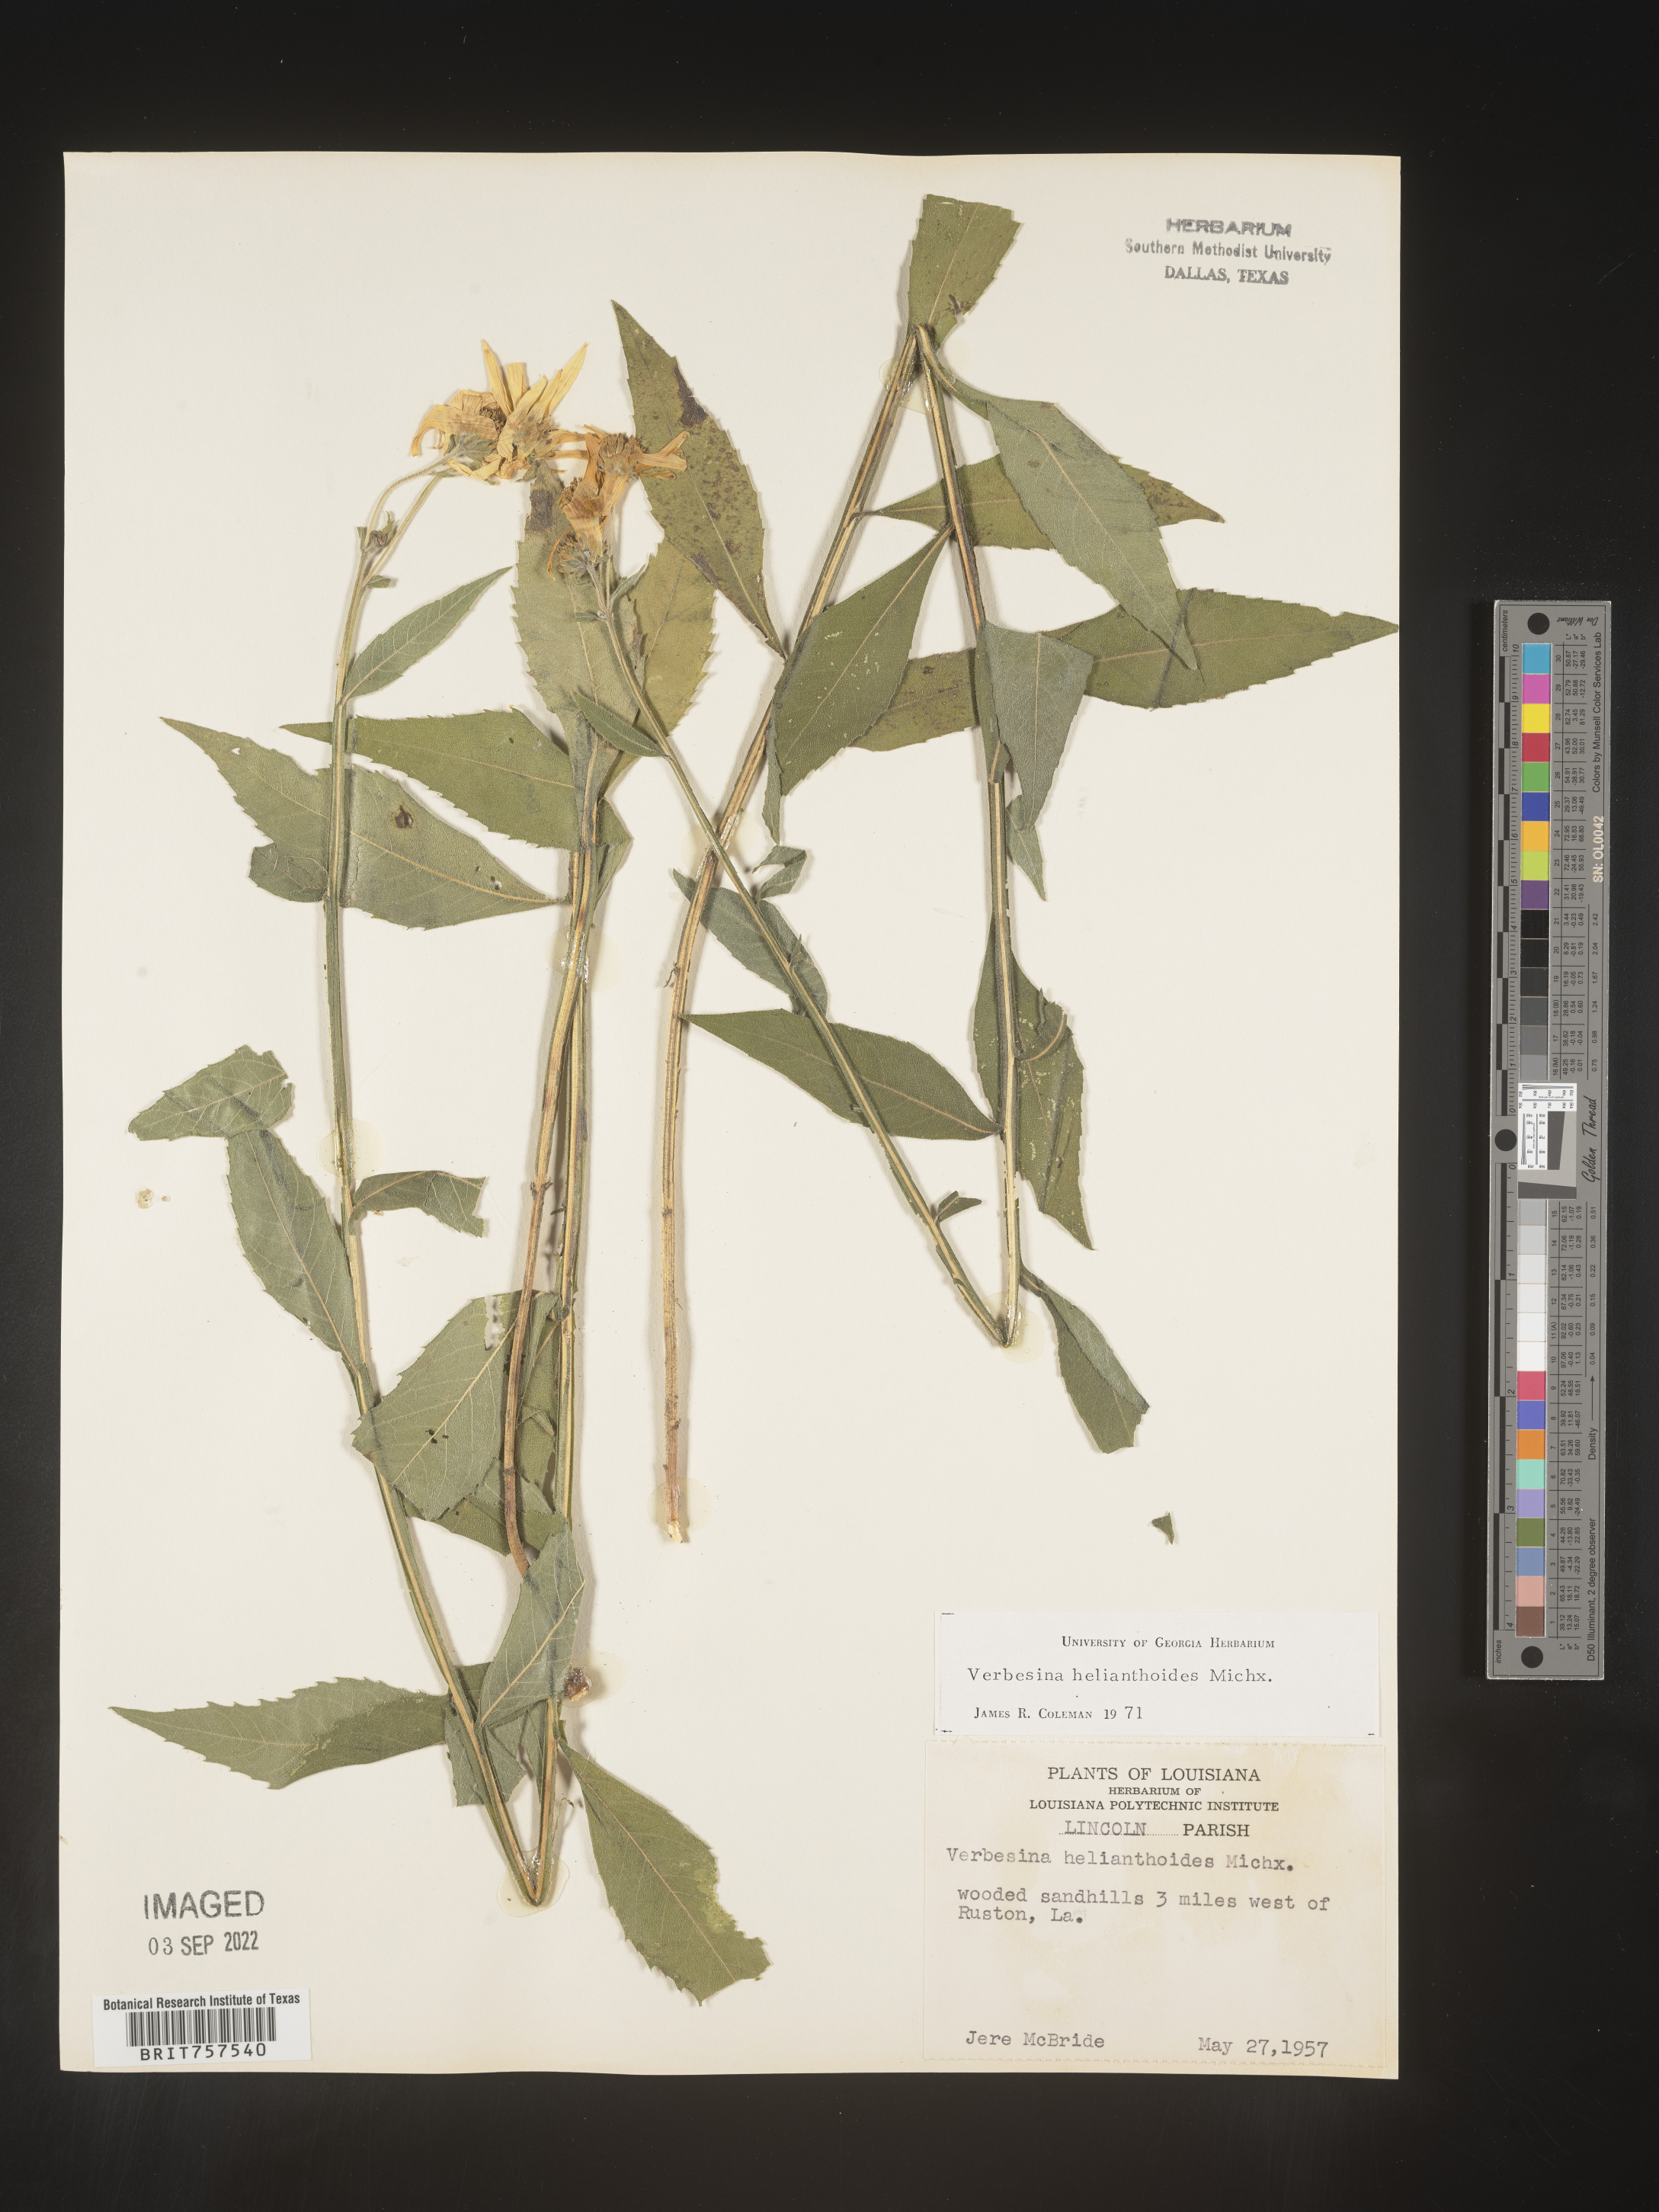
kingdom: Plantae
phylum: Tracheophyta
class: Magnoliopsida
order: Asterales
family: Asteraceae
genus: Verbesina
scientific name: Verbesina helianthoides
